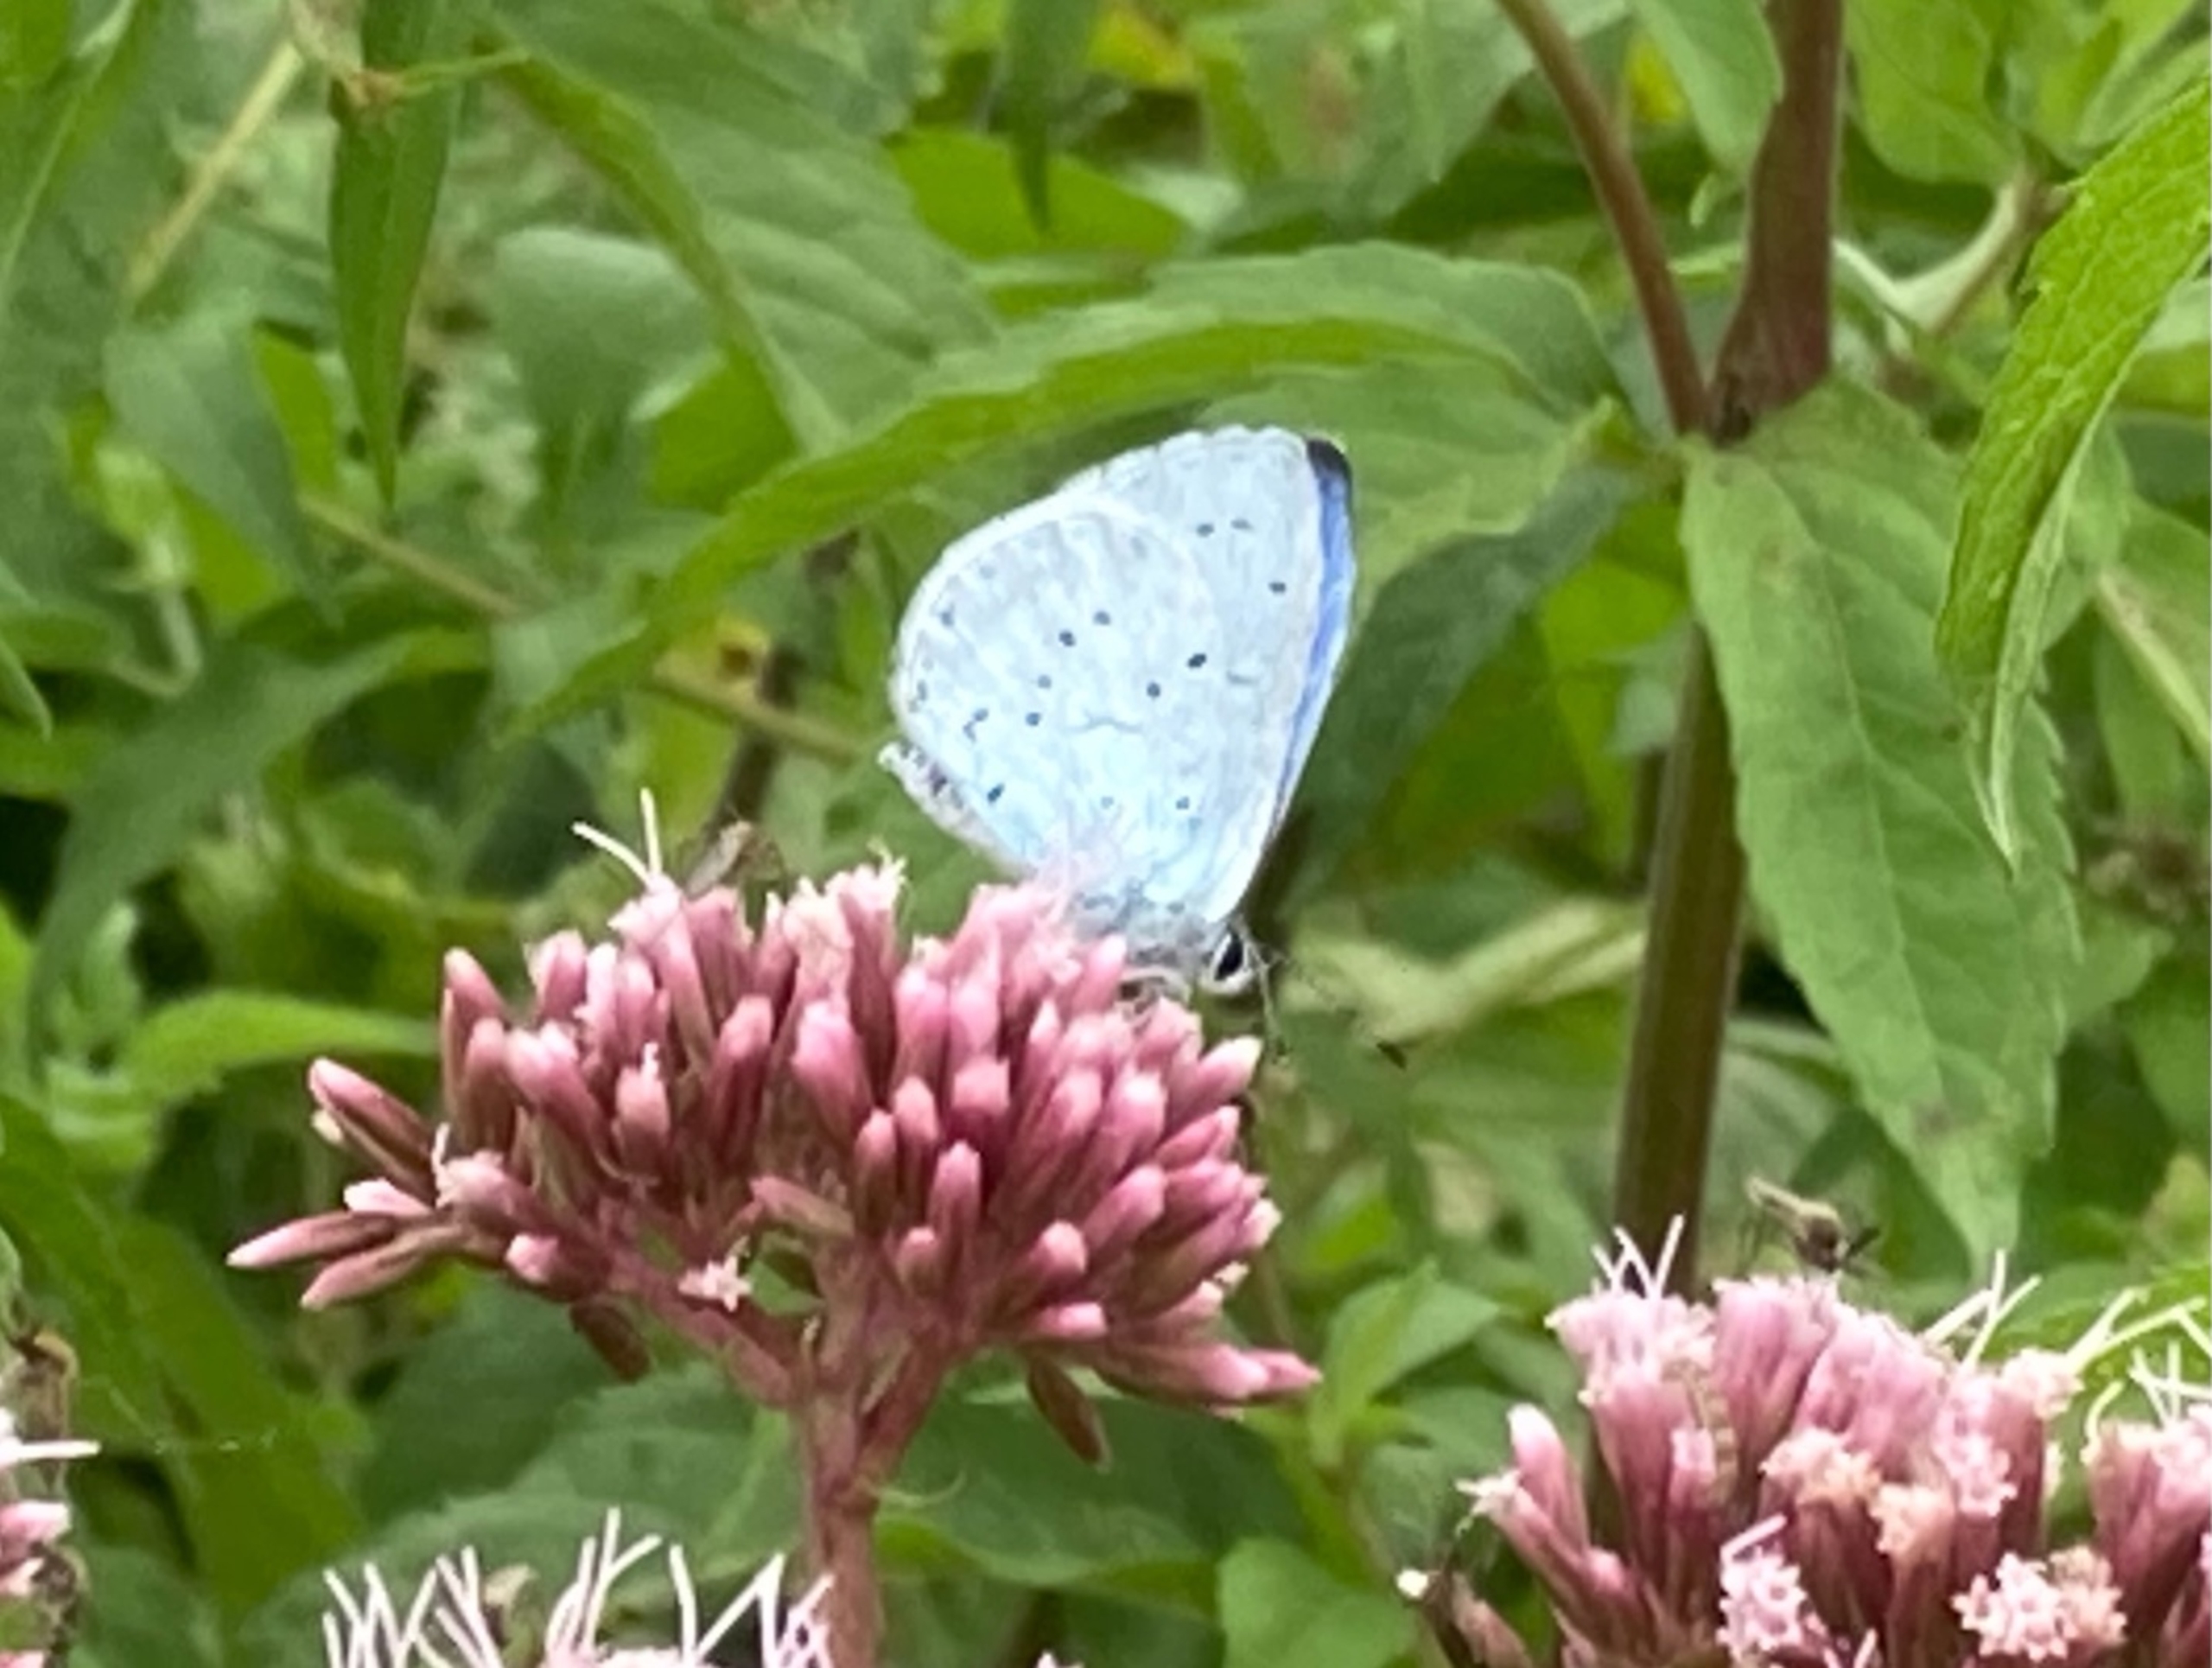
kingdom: Animalia
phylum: Arthropoda
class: Insecta
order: Lepidoptera
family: Lycaenidae
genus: Celastrina
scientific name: Celastrina argiolus
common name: Skovblåfugl
